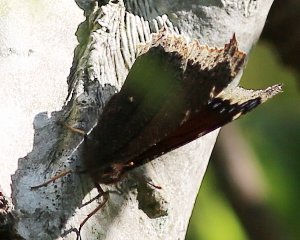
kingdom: Animalia
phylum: Arthropoda
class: Insecta
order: Lepidoptera
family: Nymphalidae
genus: Nymphalis
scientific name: Nymphalis antiopa
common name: Mourning Cloak
